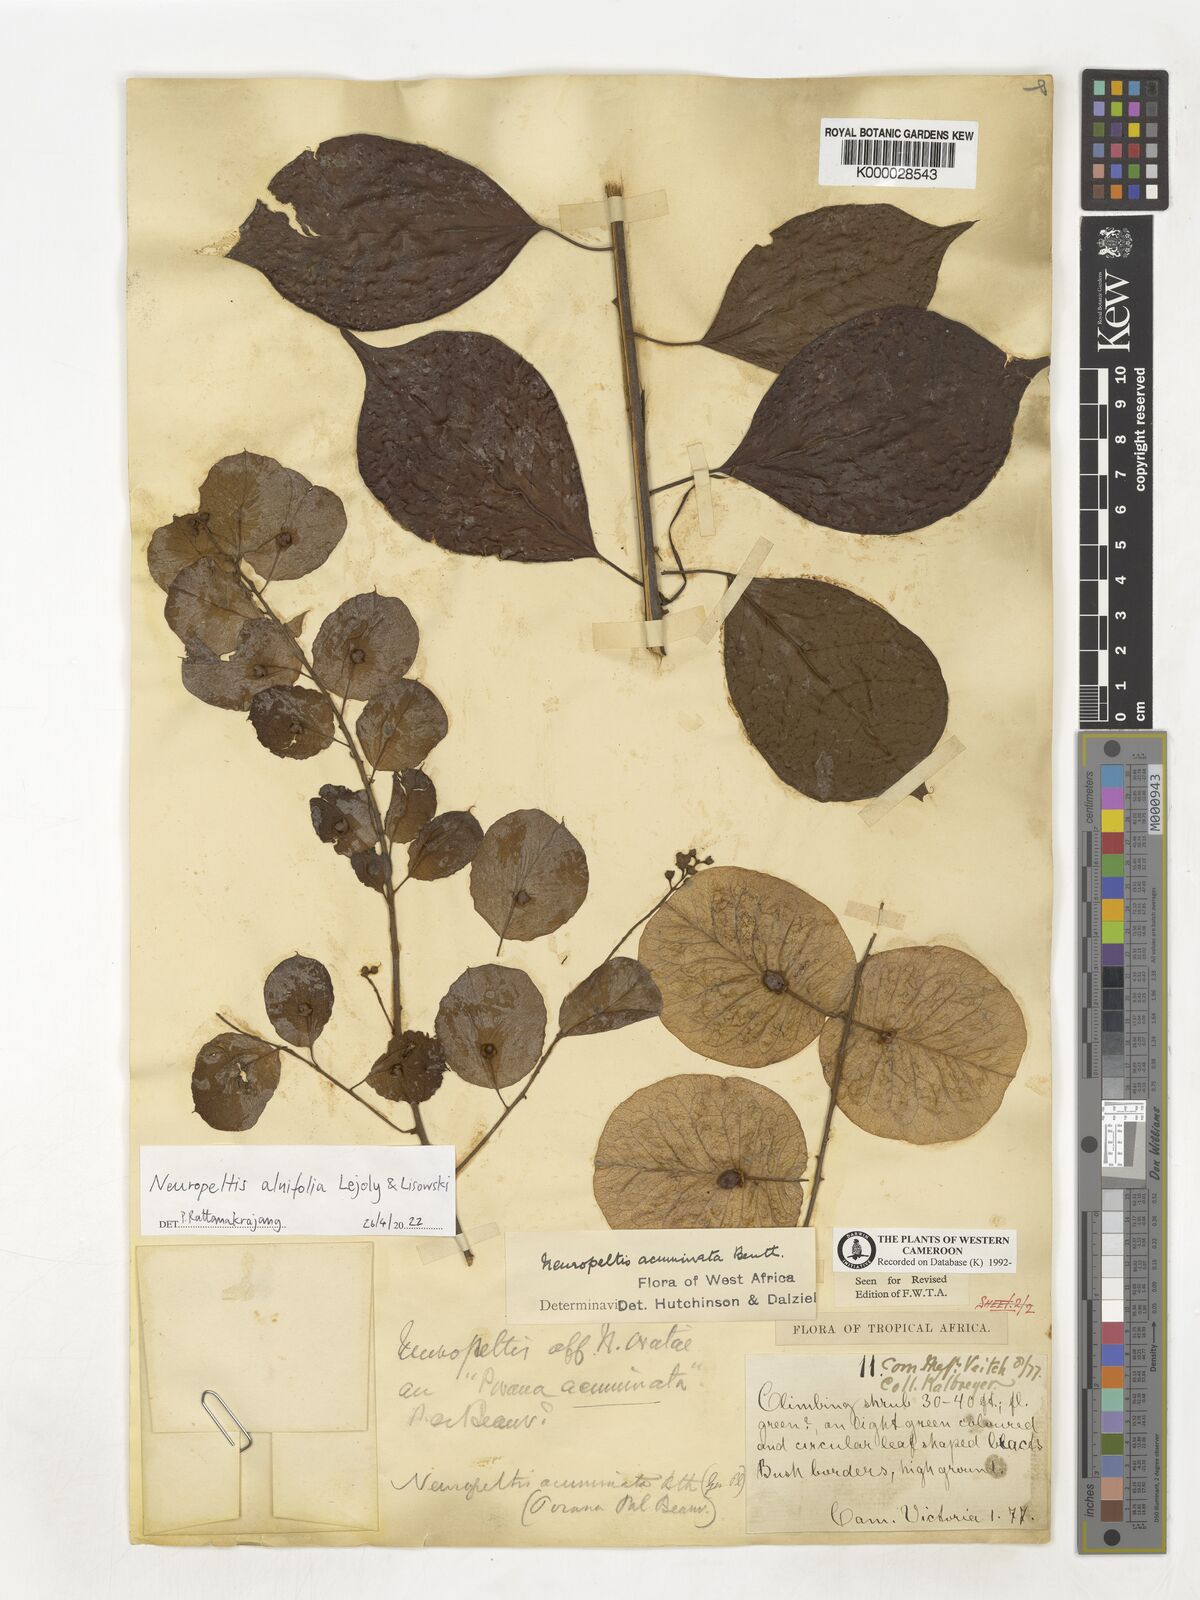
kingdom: Plantae
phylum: Tracheophyta
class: Magnoliopsida
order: Solanales
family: Convolvulaceae
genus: Neuropeltis
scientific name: Neuropeltis alnifolia
